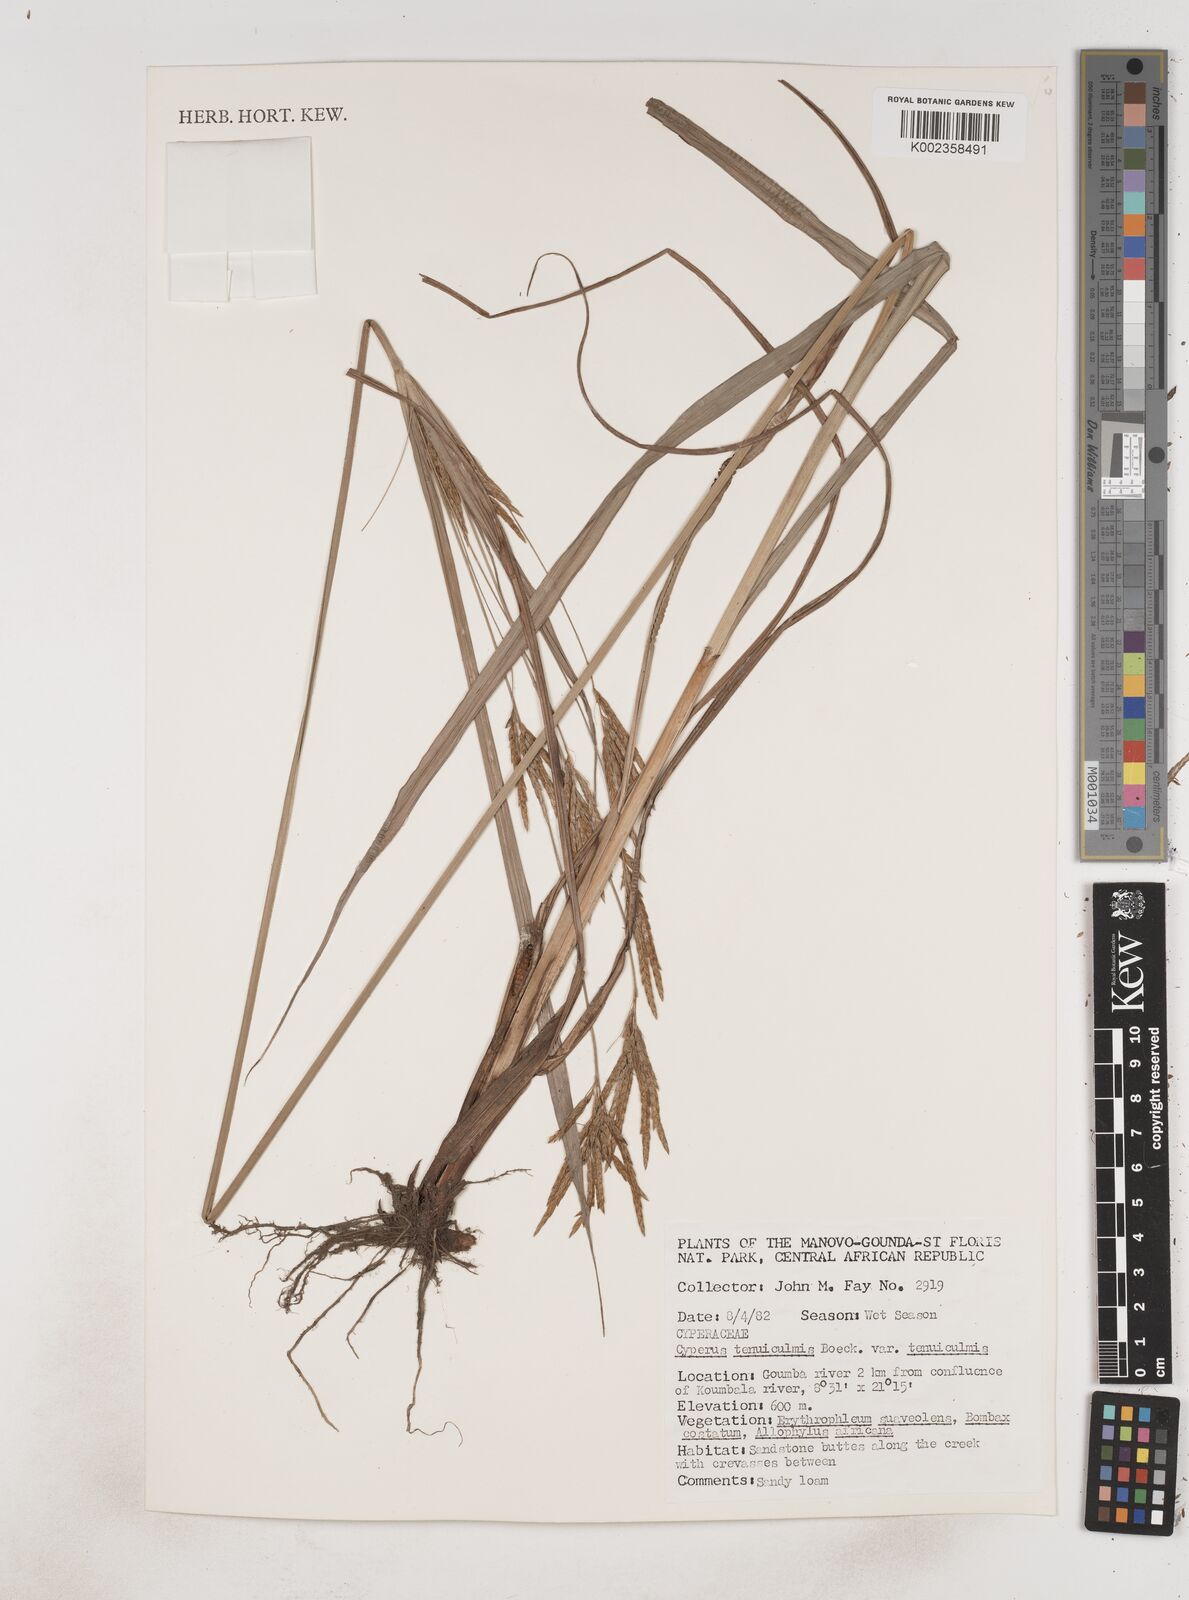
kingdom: Plantae
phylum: Tracheophyta
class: Liliopsida
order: Poales
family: Cyperaceae
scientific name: Cyperaceae
